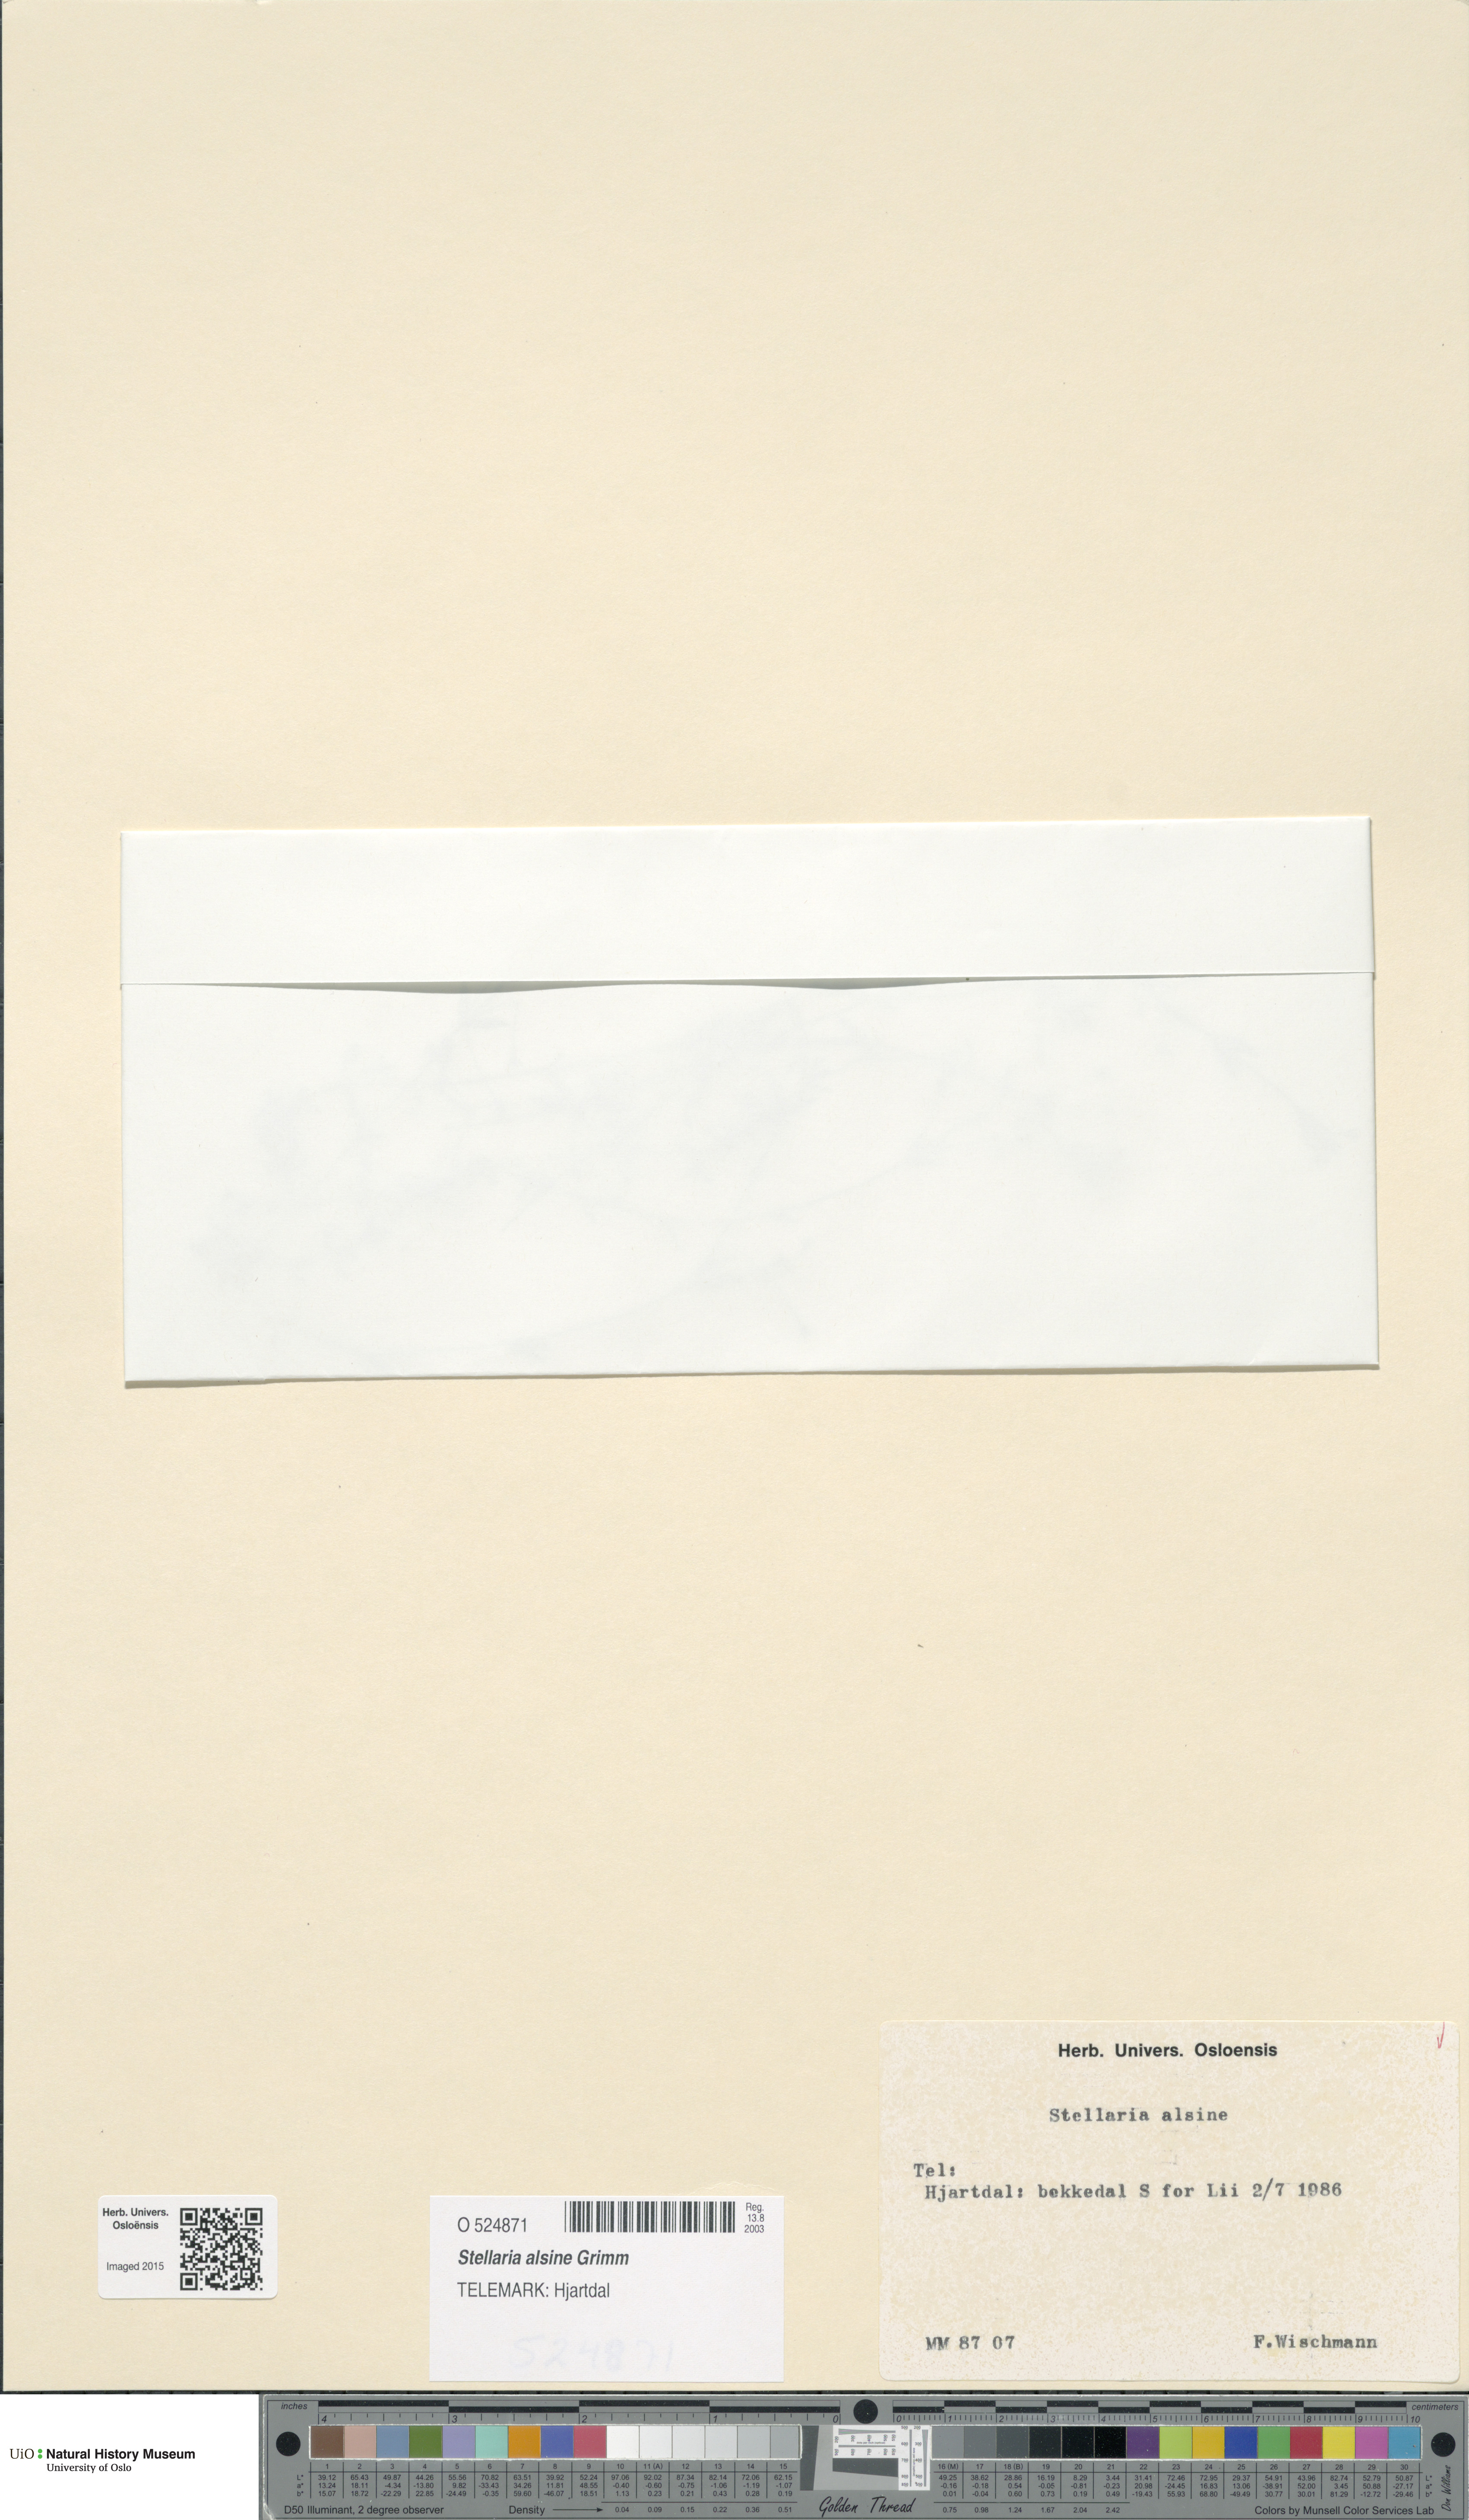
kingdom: Plantae
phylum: Tracheophyta
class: Magnoliopsida
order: Caryophyllales
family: Caryophyllaceae
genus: Stellaria
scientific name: Stellaria alsine
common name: Bog stitchwort
